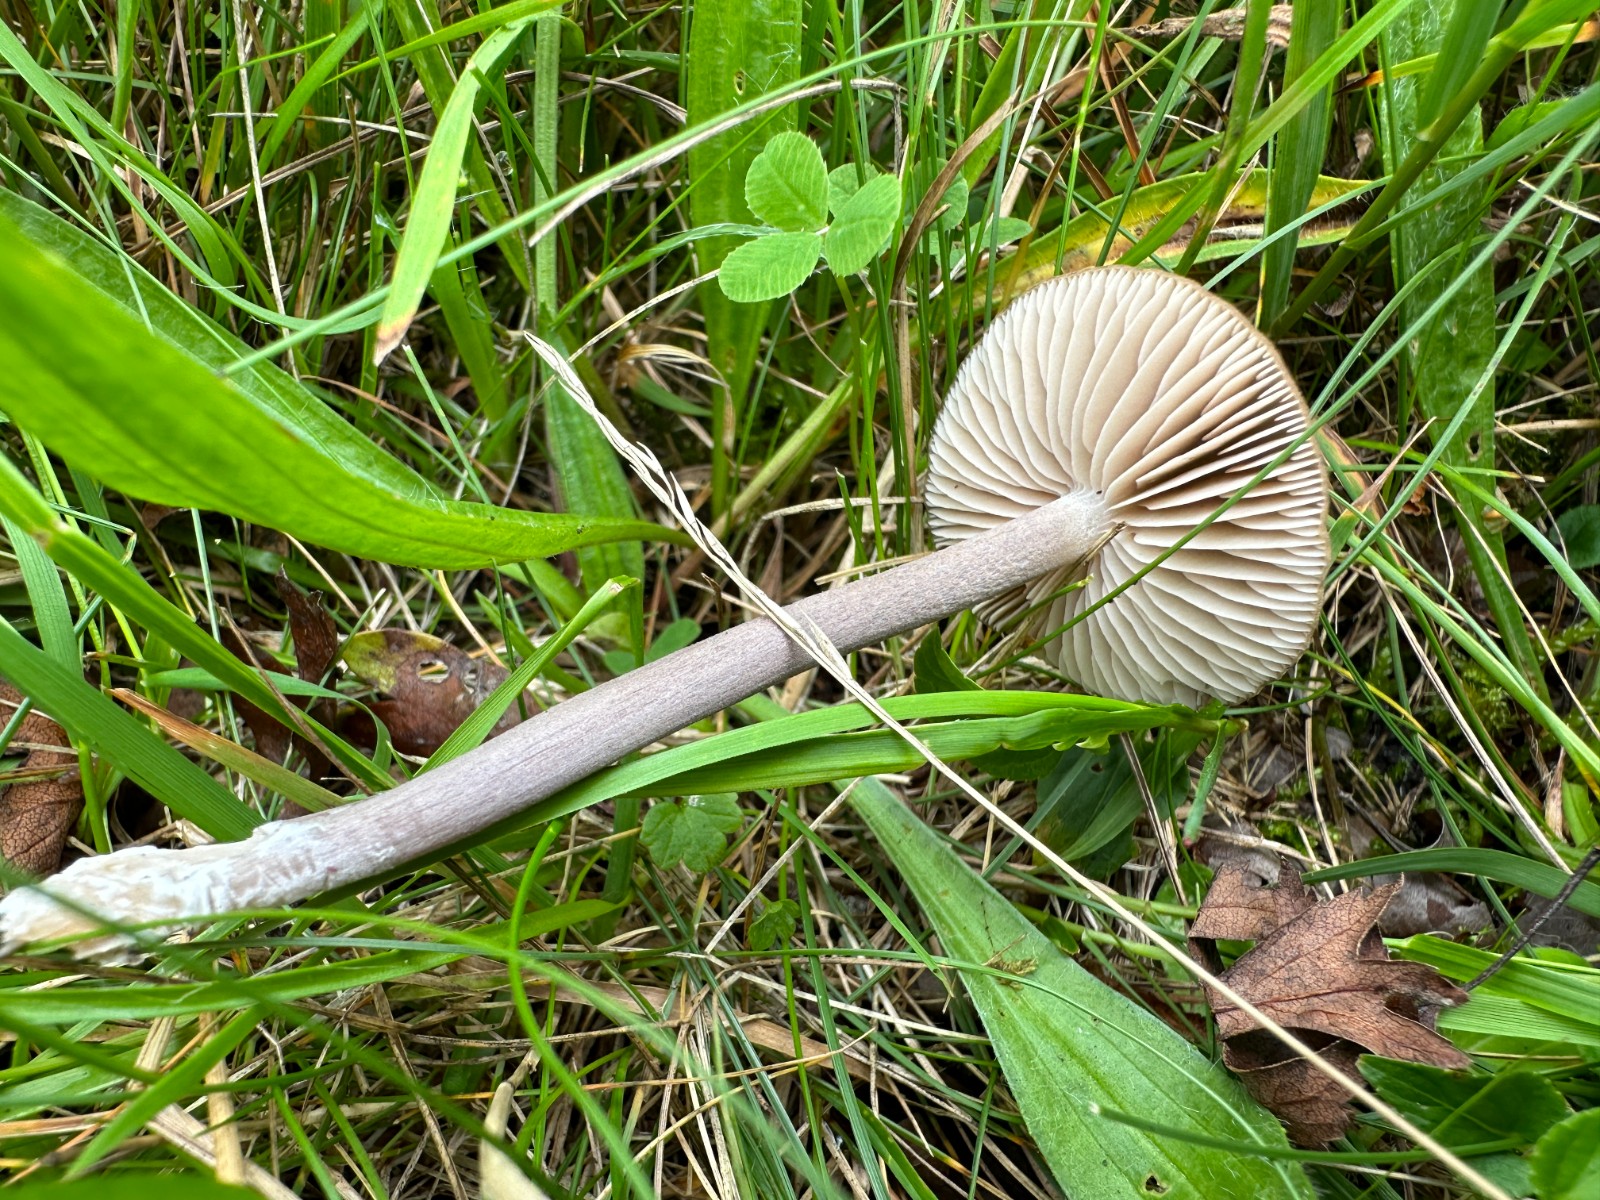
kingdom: Fungi
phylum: Basidiomycota
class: Agaricomycetes
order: Agaricales
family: Entolomataceae
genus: Entoloma
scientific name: Entoloma griseocyaneum
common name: gråblå rødblad
